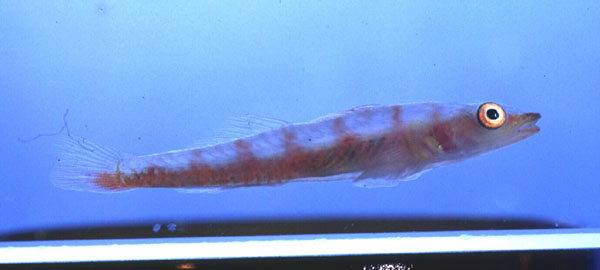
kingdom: Animalia
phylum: Chordata
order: Perciformes
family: Gobiidae
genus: Bryaninops
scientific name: Bryaninops yongei
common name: Whip coral goby
